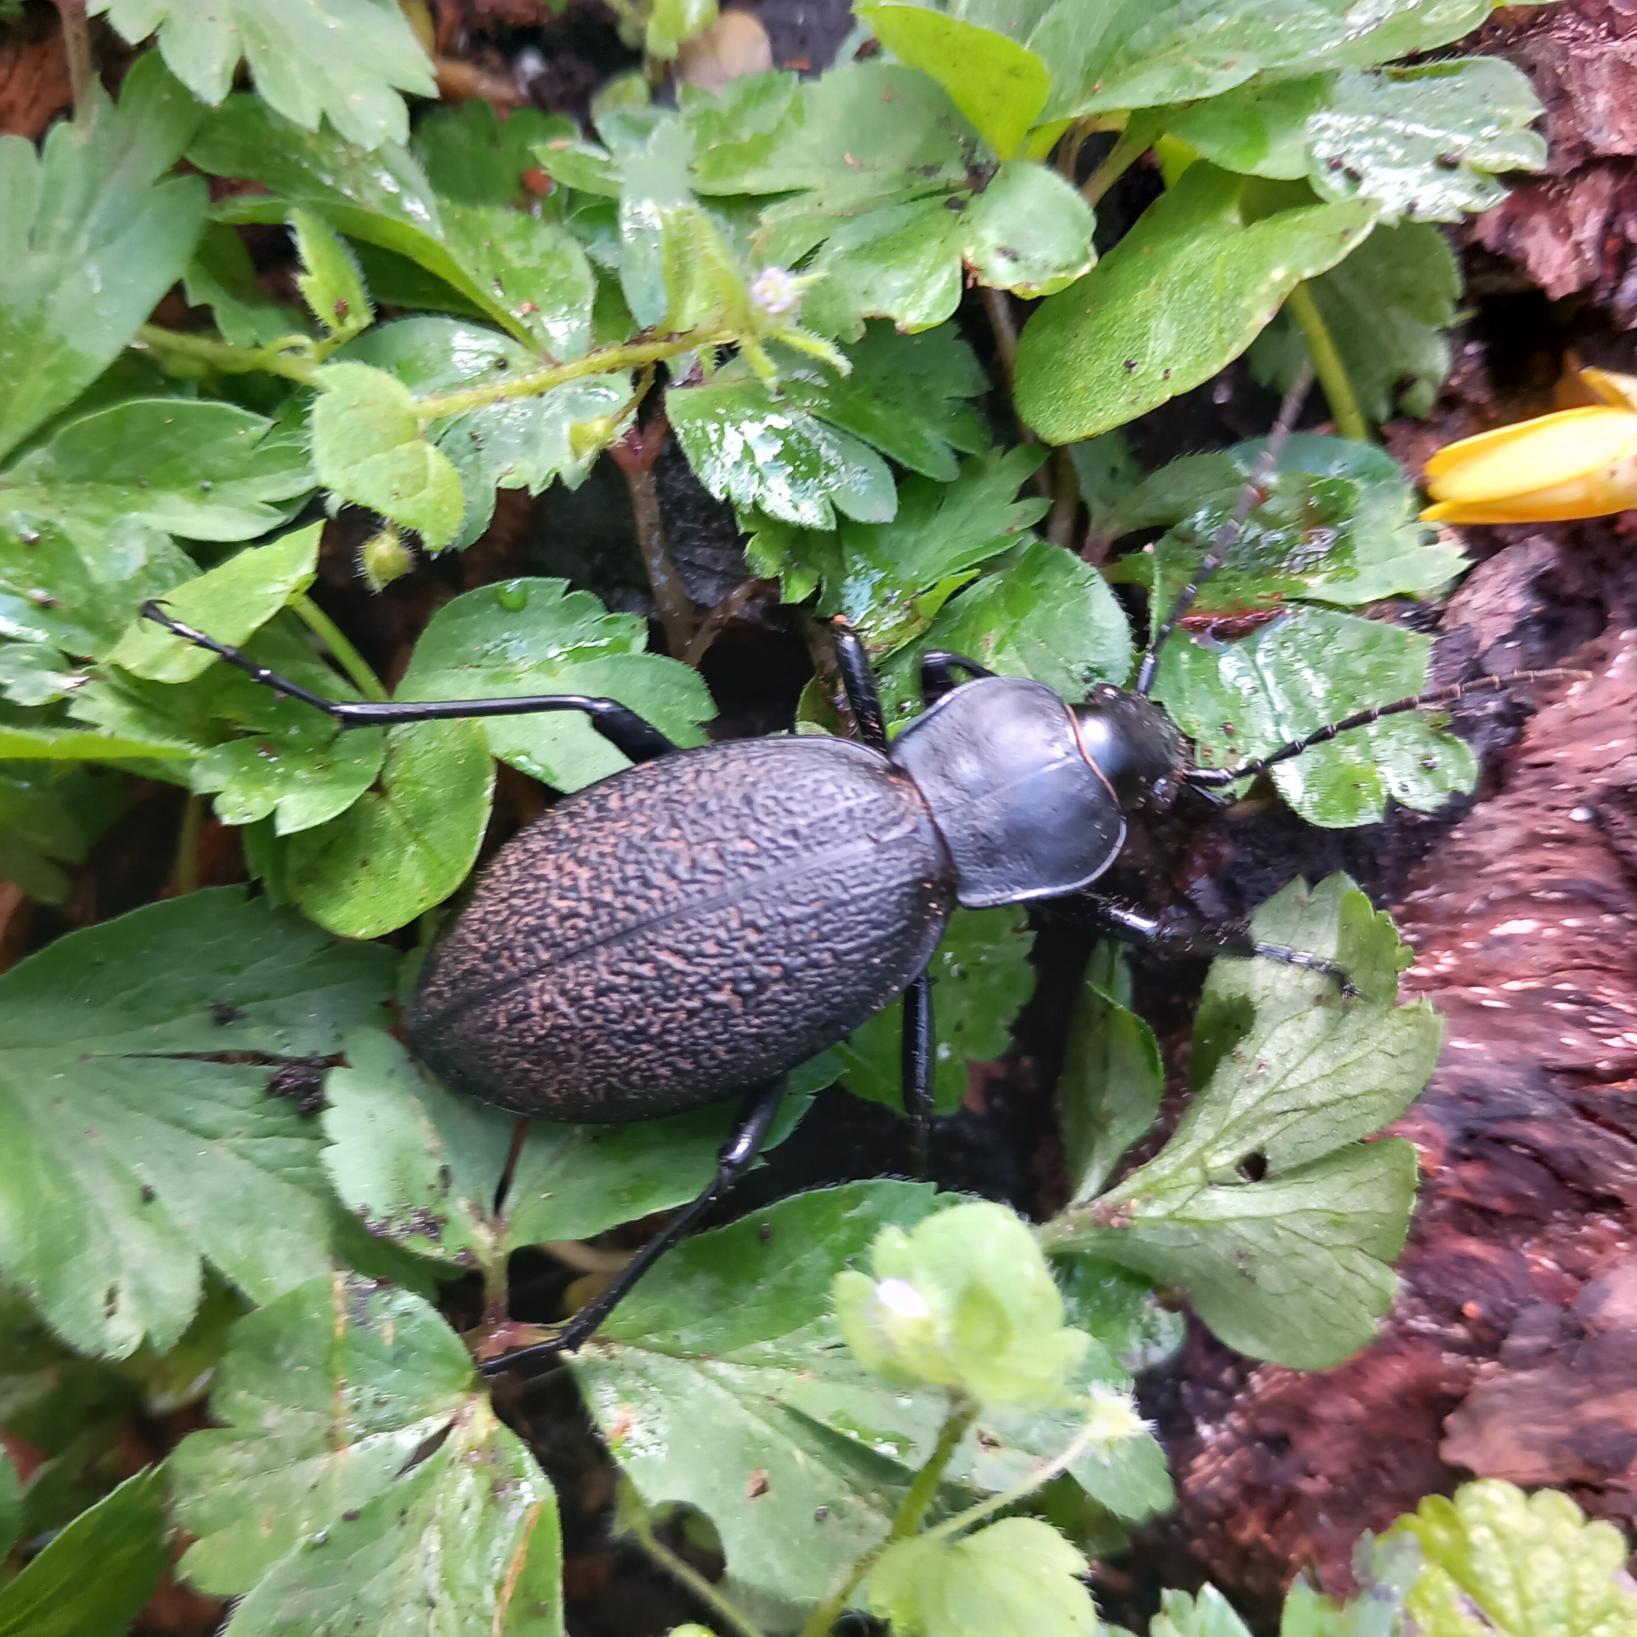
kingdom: Animalia
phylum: Arthropoda
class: Insecta
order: Coleoptera
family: Carabidae
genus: Carabus
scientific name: Carabus coriaceus
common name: Læderløber
